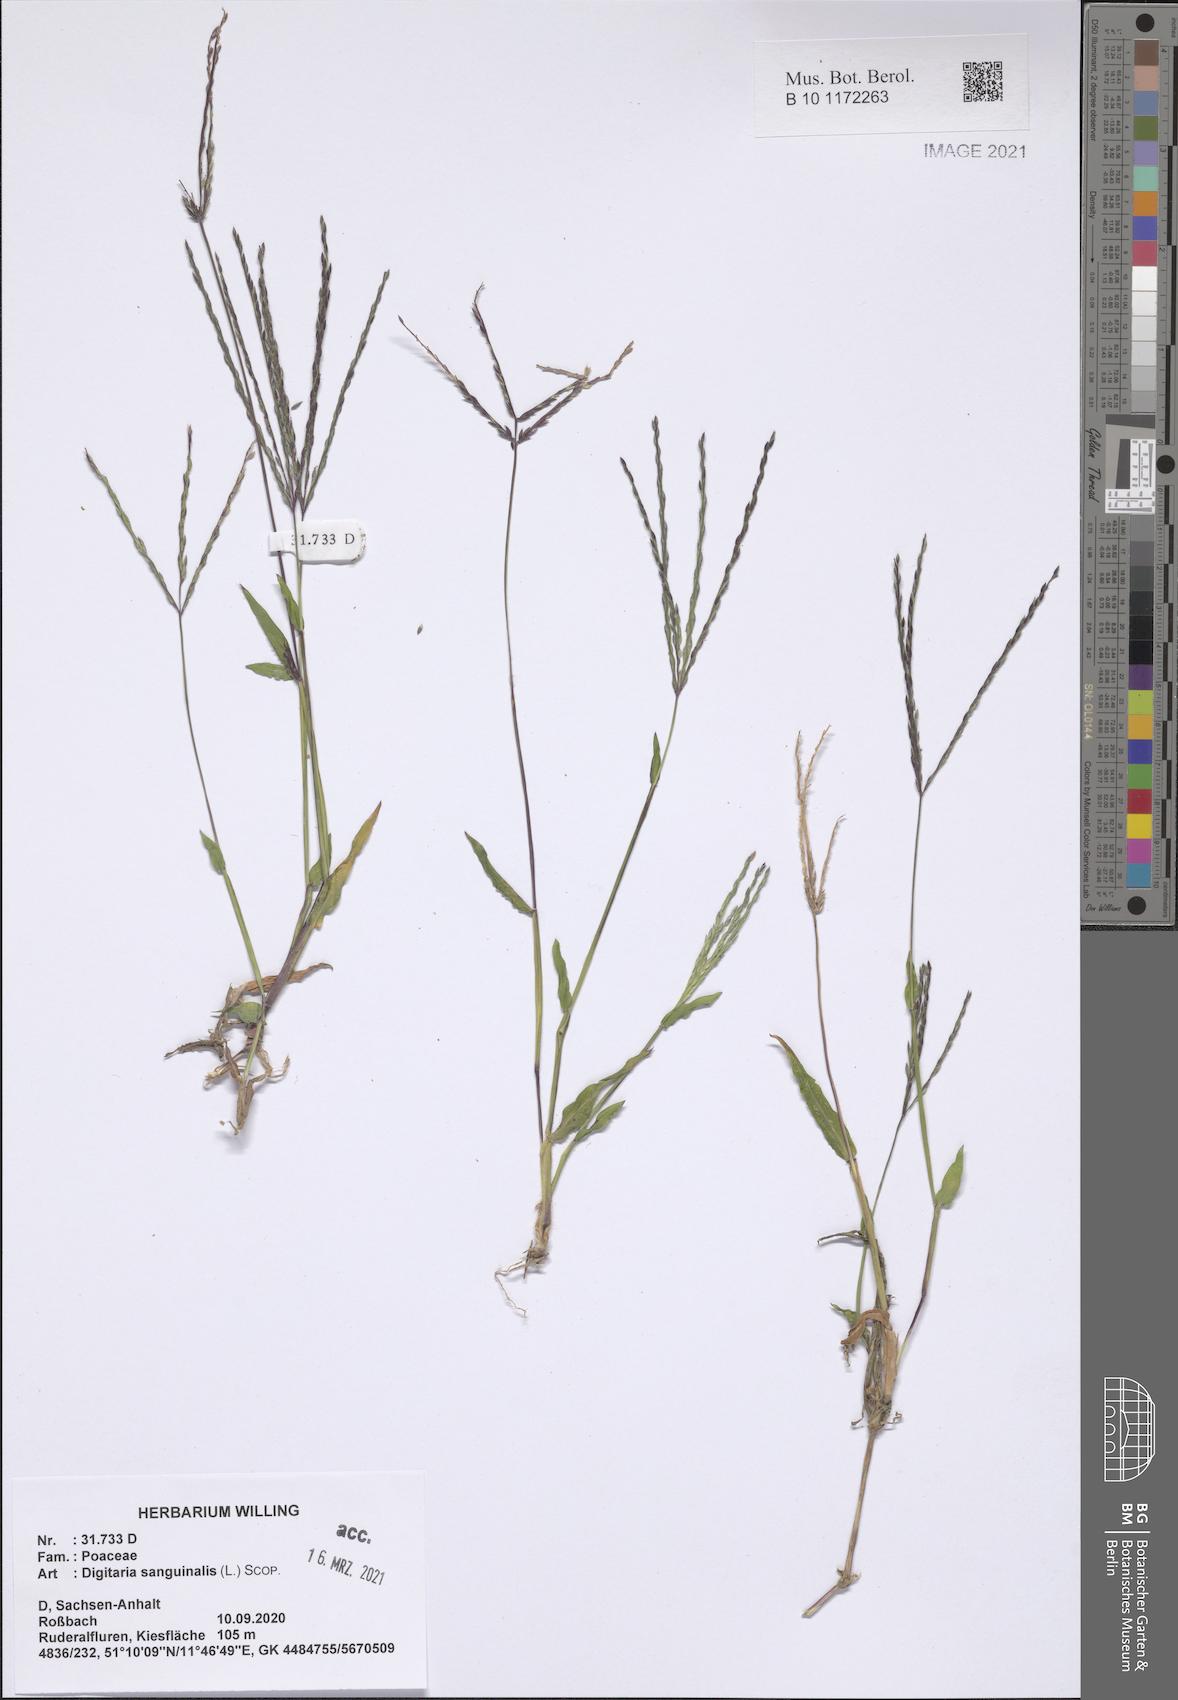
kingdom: Plantae
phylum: Tracheophyta
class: Liliopsida
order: Poales
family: Poaceae
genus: Digitaria
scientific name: Digitaria sanguinalis
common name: Hairy crabgrass
